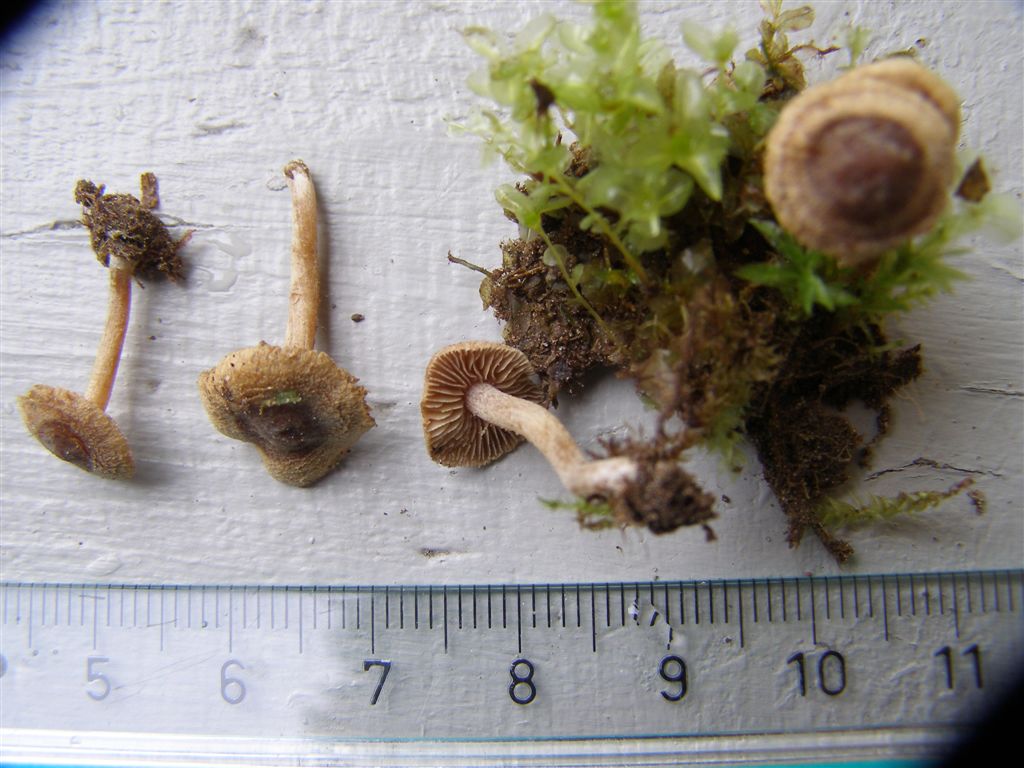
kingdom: Fungi
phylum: Basidiomycota
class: Agaricomycetes
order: Agaricales
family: Inocybaceae
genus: Inocybe
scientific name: Inocybe rufoalba
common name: dværg-trævlhat
